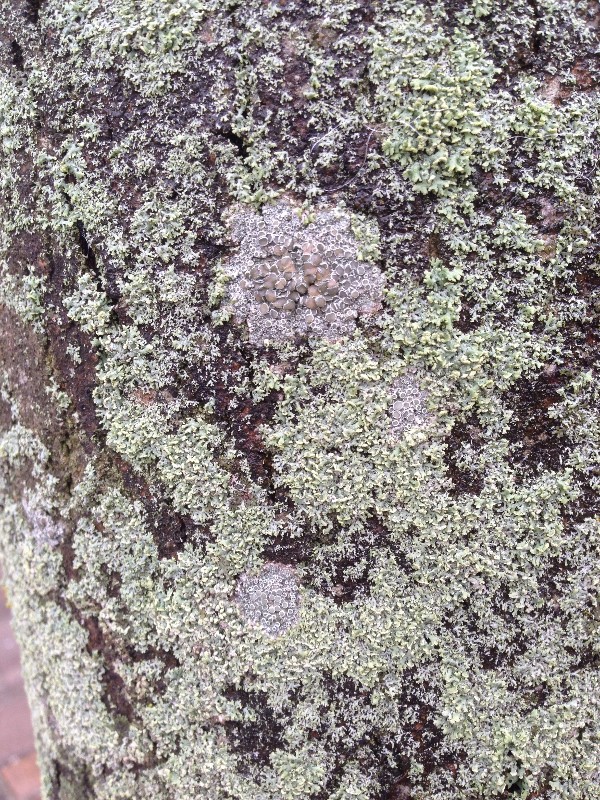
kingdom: Fungi
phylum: Ascomycota
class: Lecanoromycetes
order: Lecanorales
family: Lecanoraceae
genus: Lecanora
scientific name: Lecanora chlarotera
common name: brun kantskivelav
